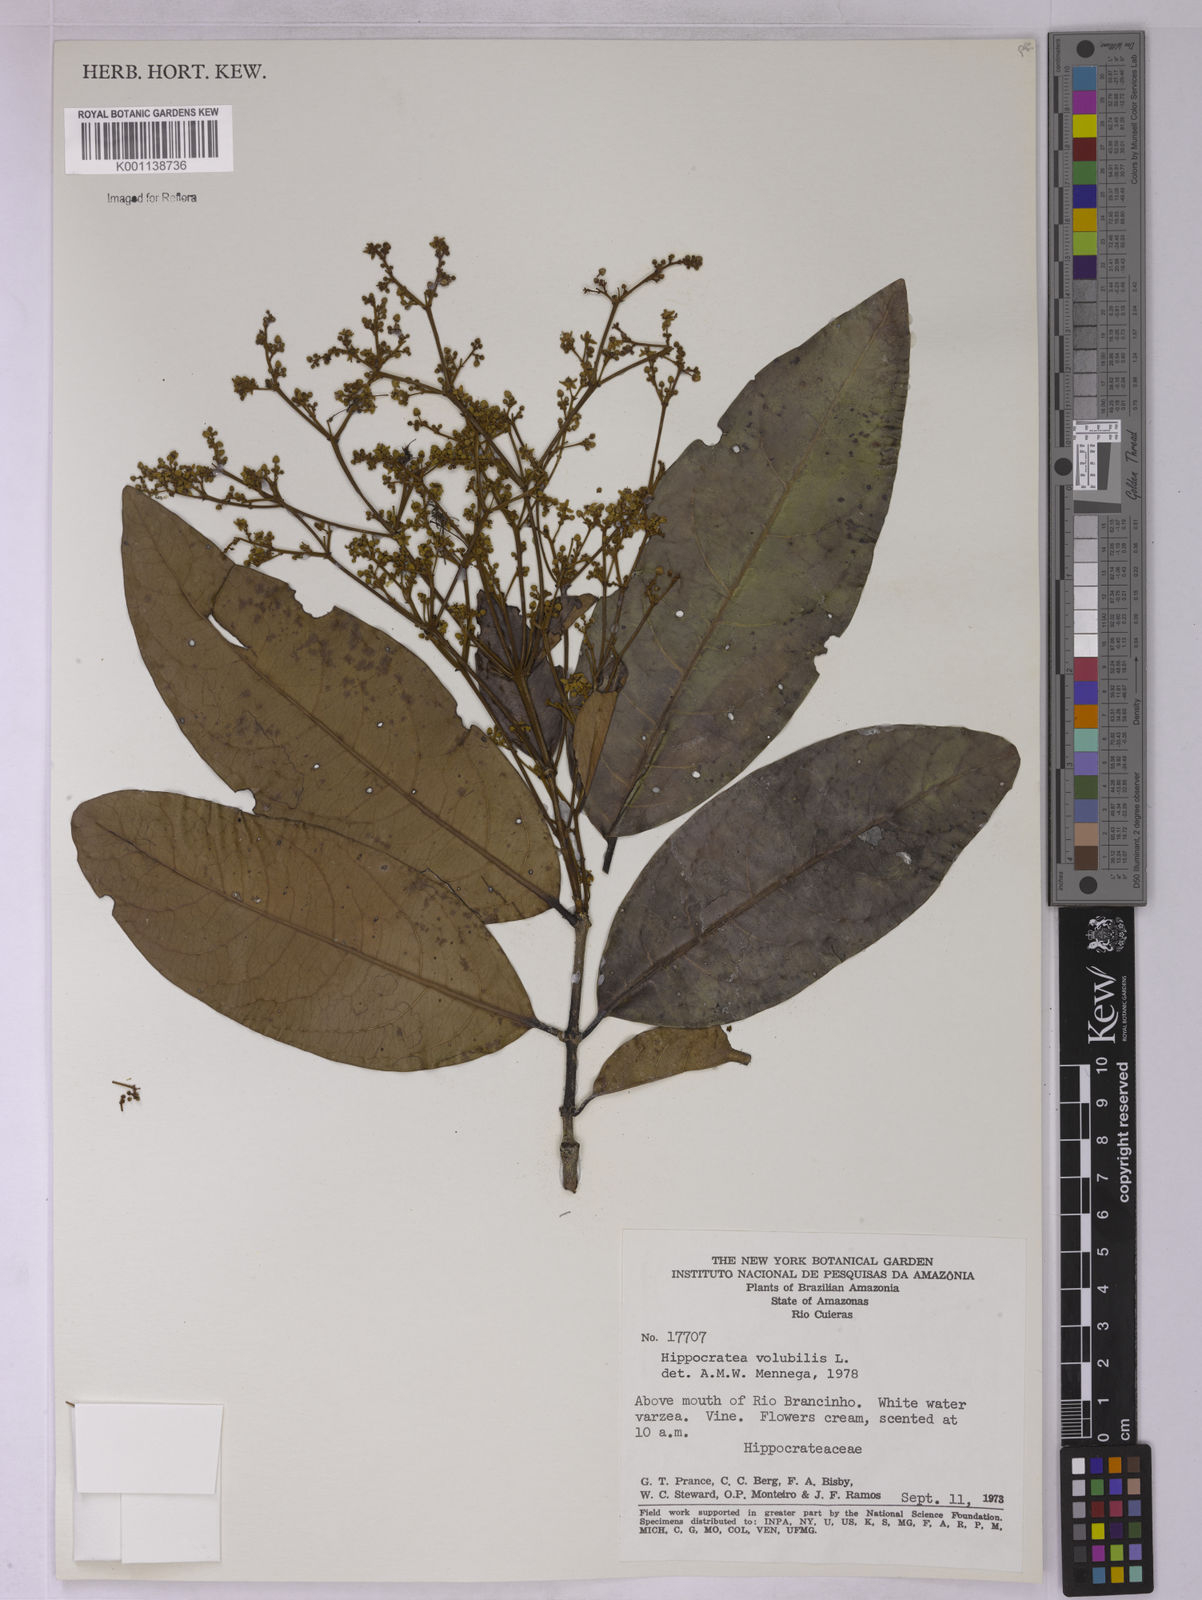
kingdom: Plantae
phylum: Tracheophyta
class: Magnoliopsida
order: Celastrales
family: Celastraceae
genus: Hippocratea
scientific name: Hippocratea volubilis
